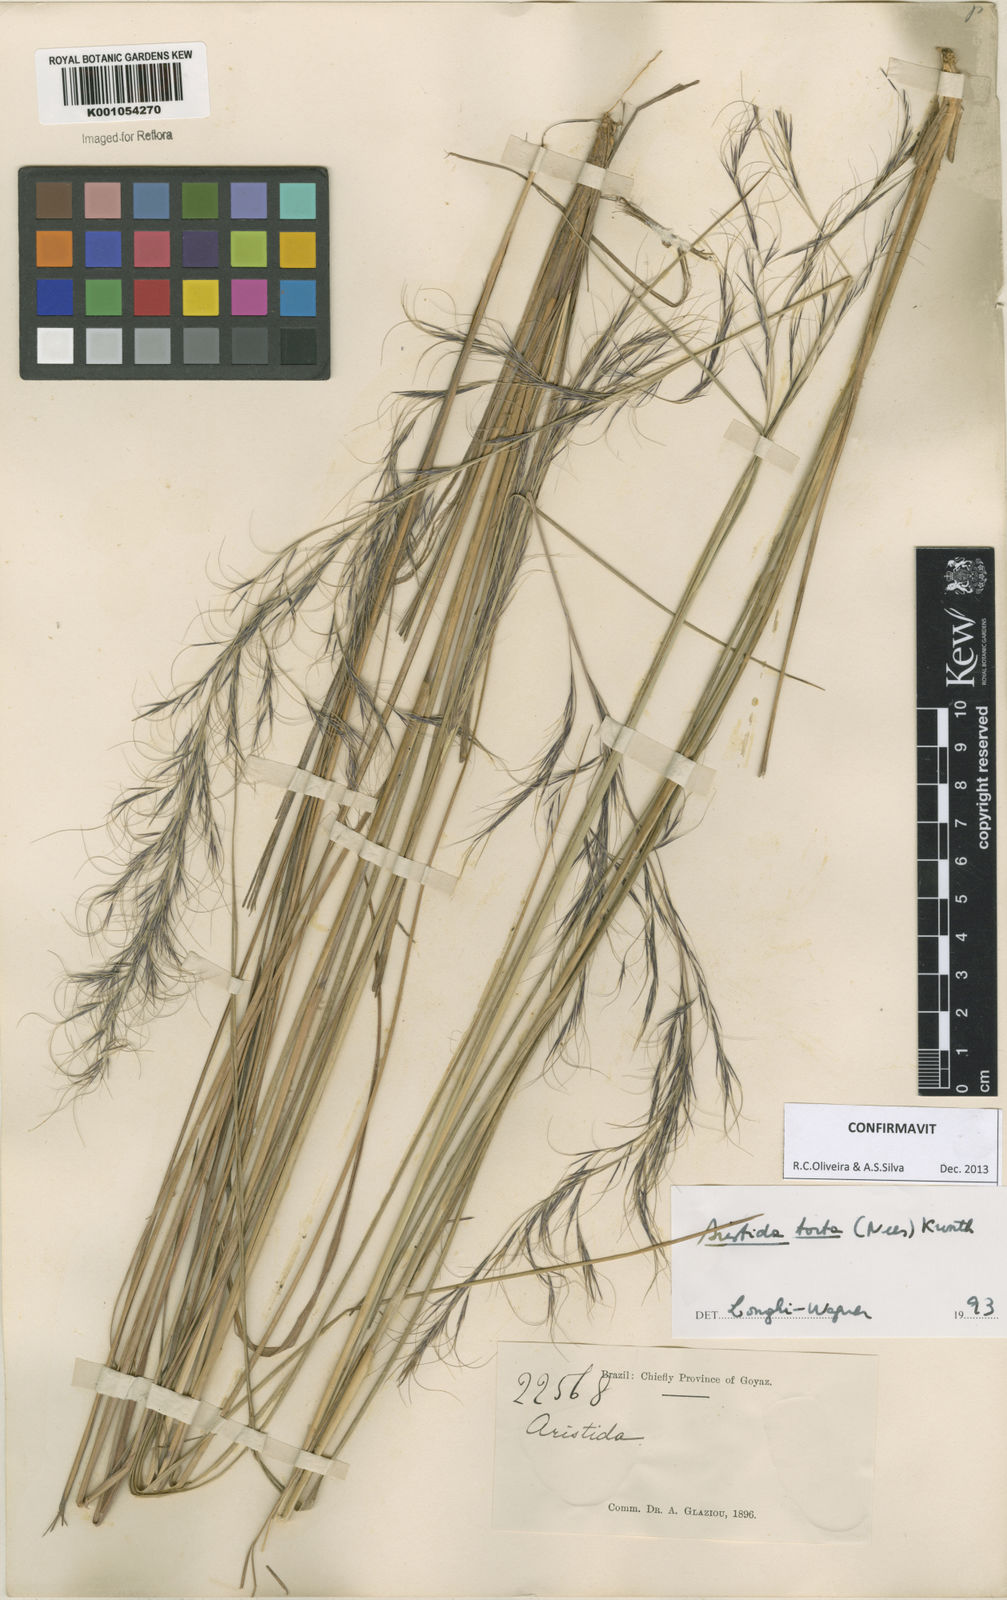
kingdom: Plantae
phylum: Tracheophyta
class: Liliopsida
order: Poales
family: Poaceae
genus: Aristida
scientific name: Aristida torta
